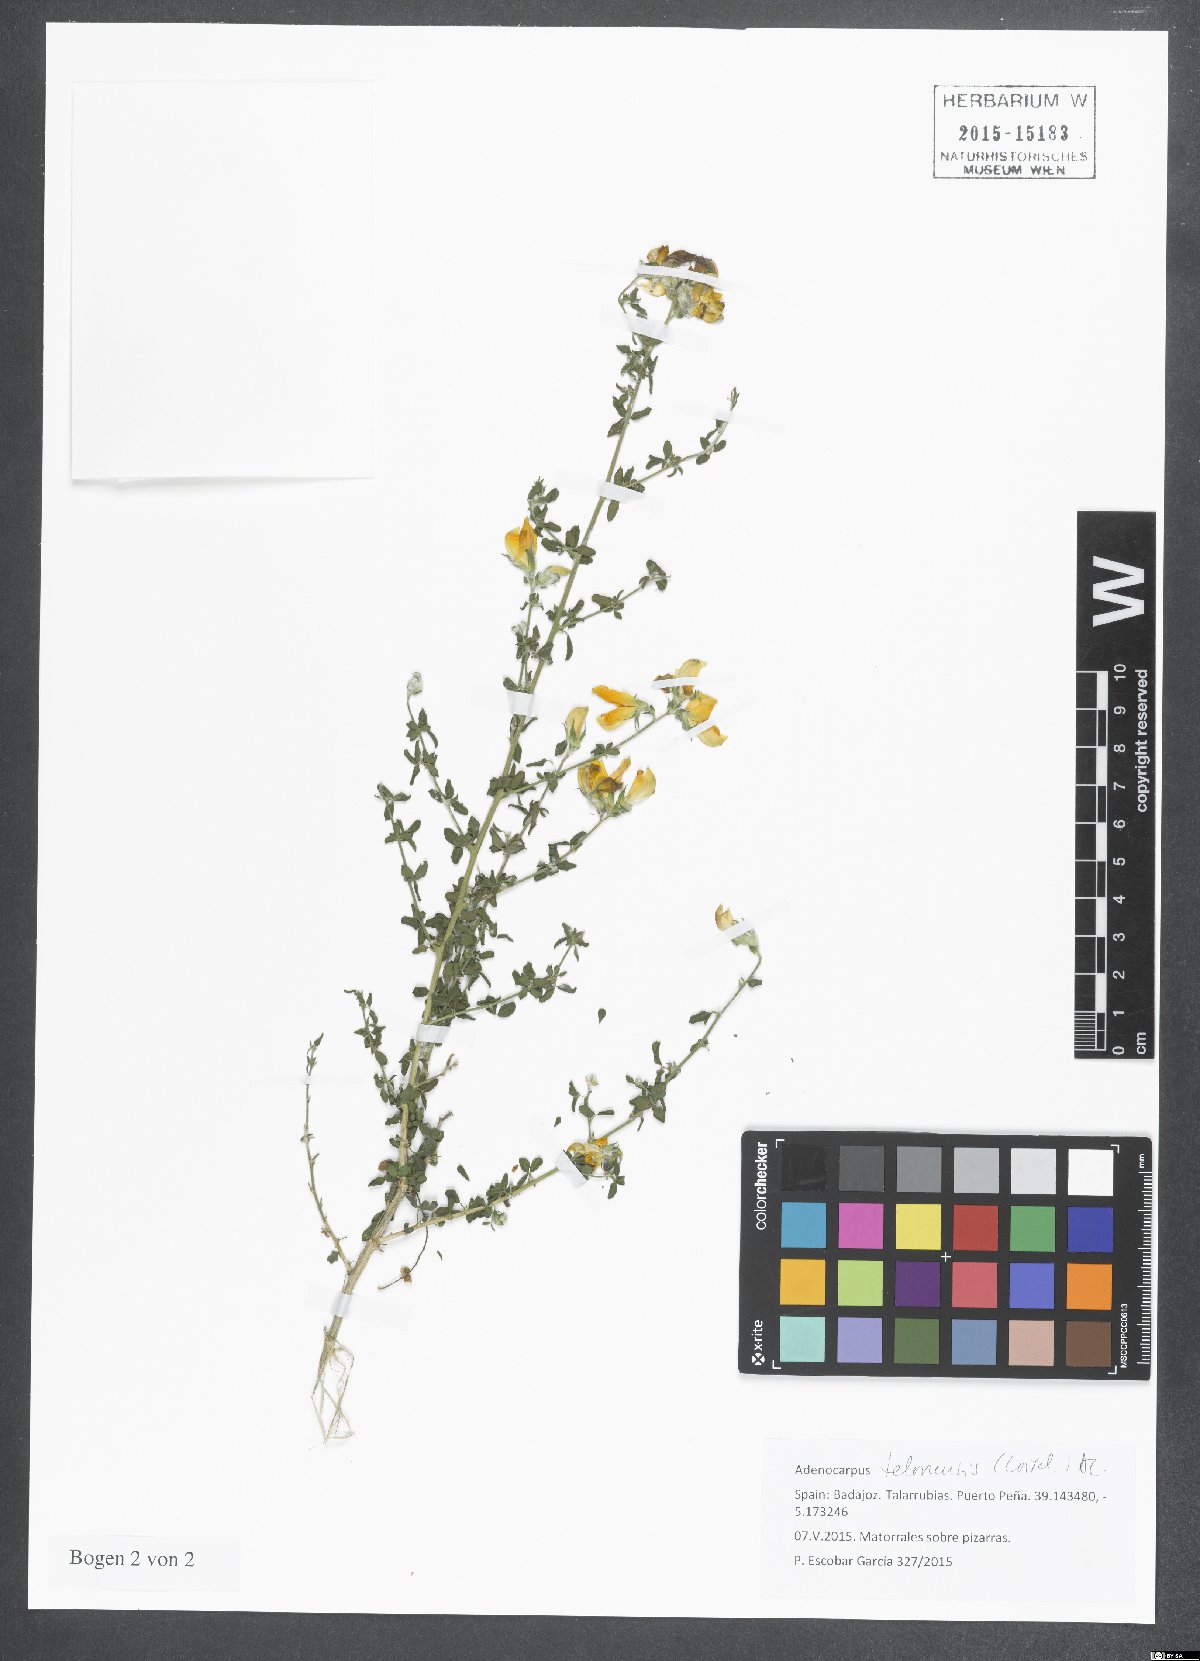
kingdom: Plantae
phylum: Tracheophyta
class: Magnoliopsida
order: Fabales
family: Fabaceae
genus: Adenocarpus
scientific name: Adenocarpus telonensis
